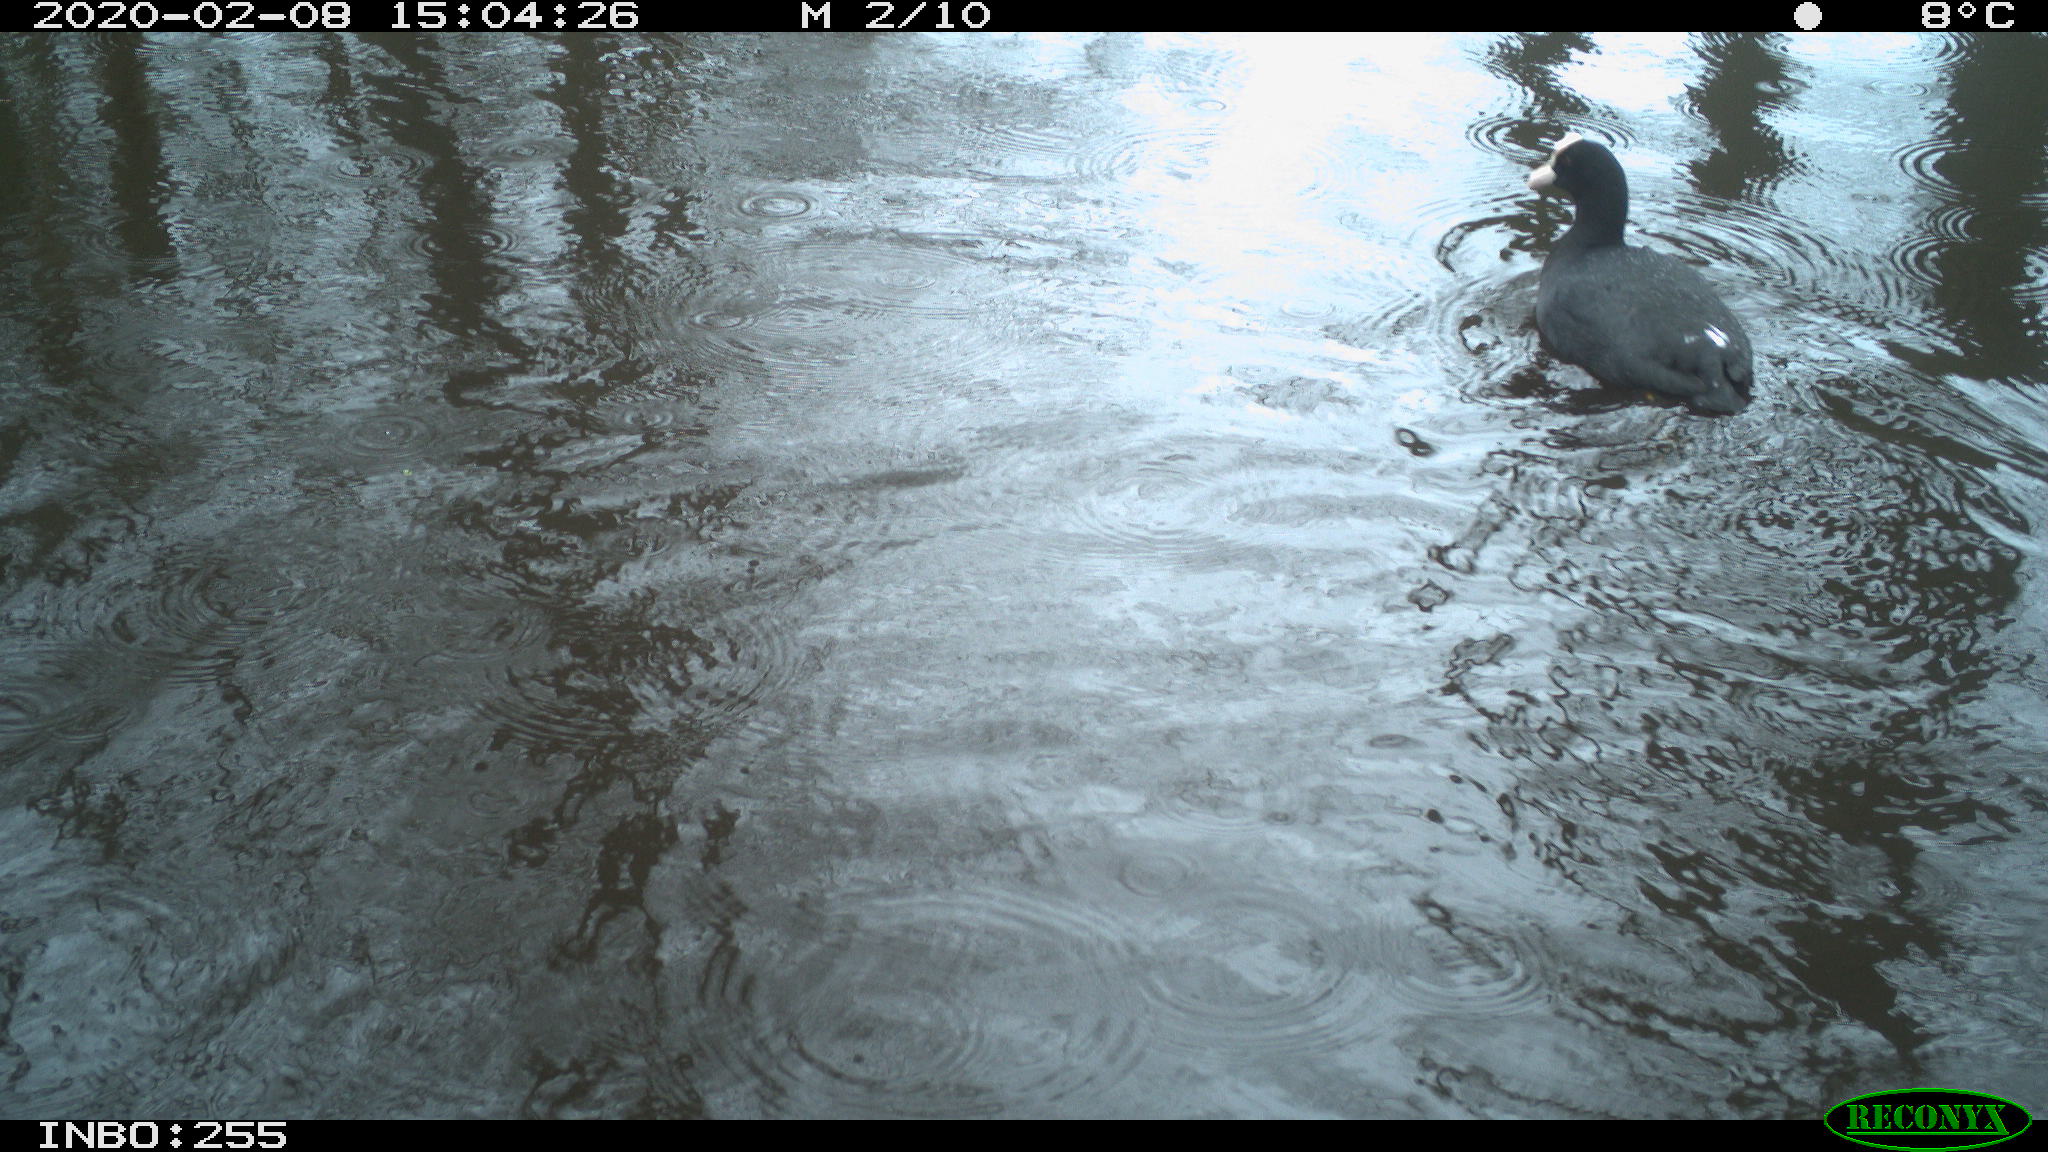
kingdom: Animalia
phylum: Chordata
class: Aves
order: Gruiformes
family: Rallidae
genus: Fulica
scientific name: Fulica atra
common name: Eurasian coot
